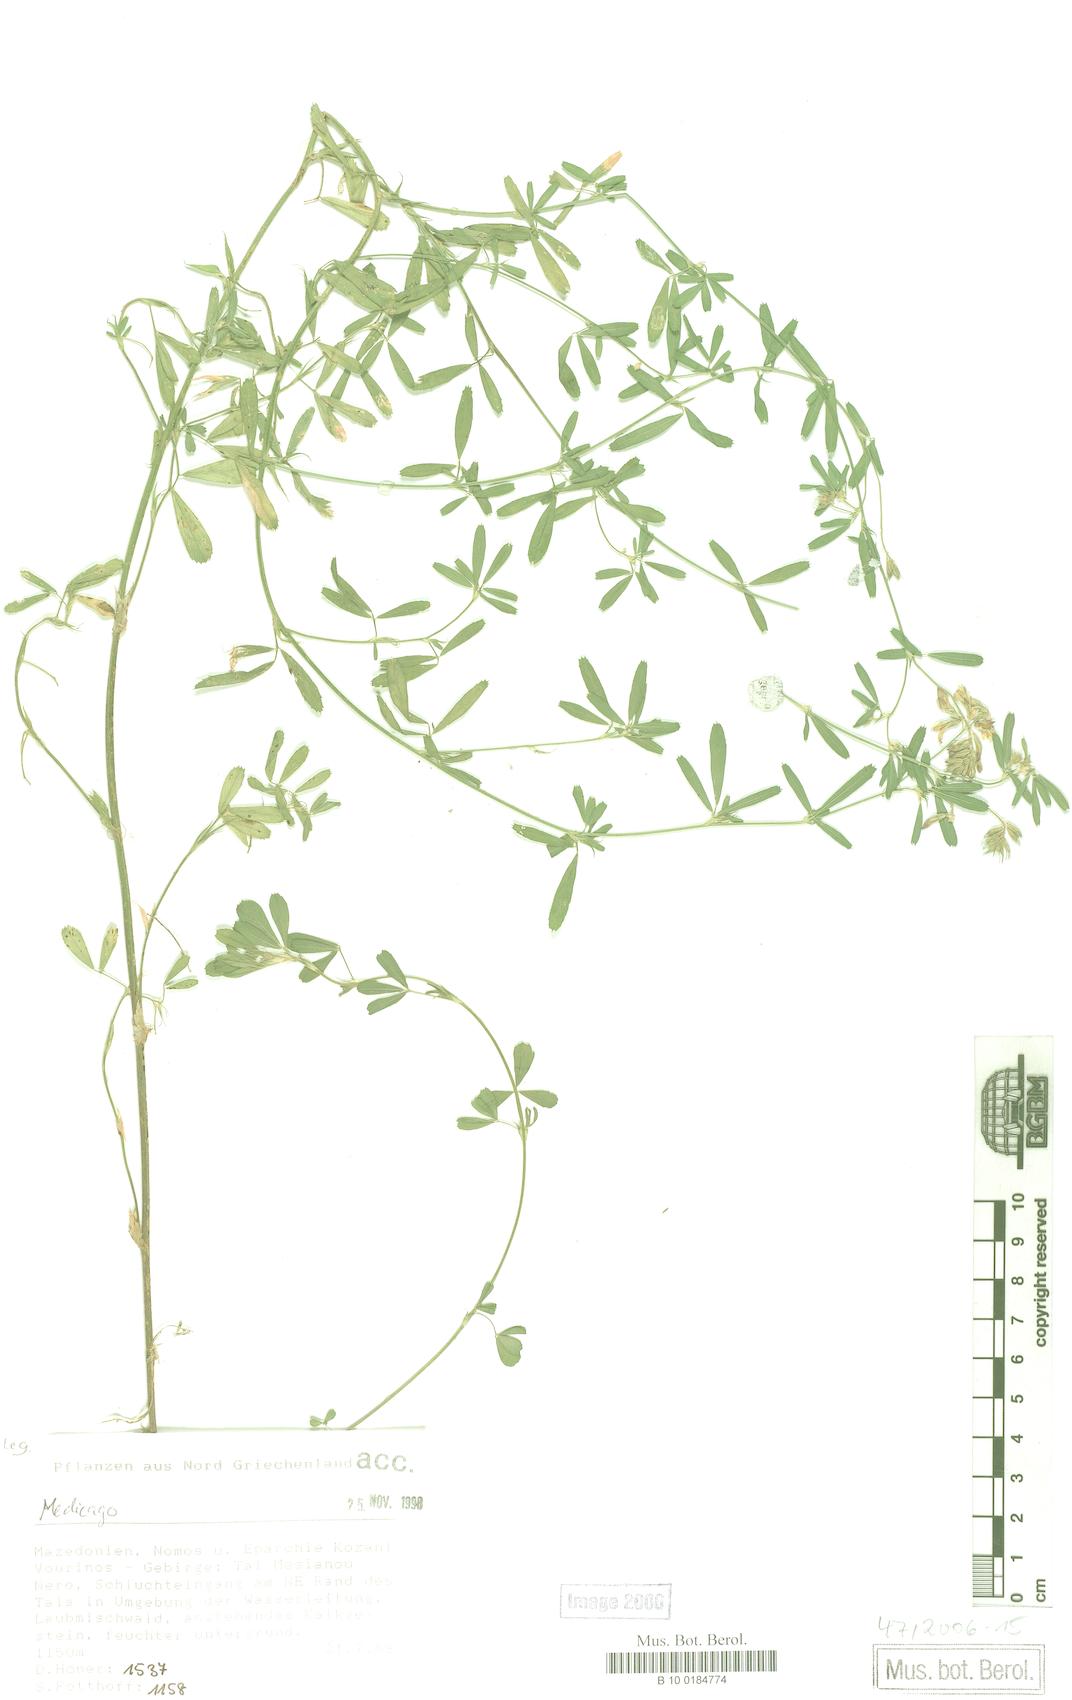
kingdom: Plantae
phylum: Tracheophyta
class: Magnoliopsida
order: Fabales
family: Fabaceae
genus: Medicago
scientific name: Medicago
